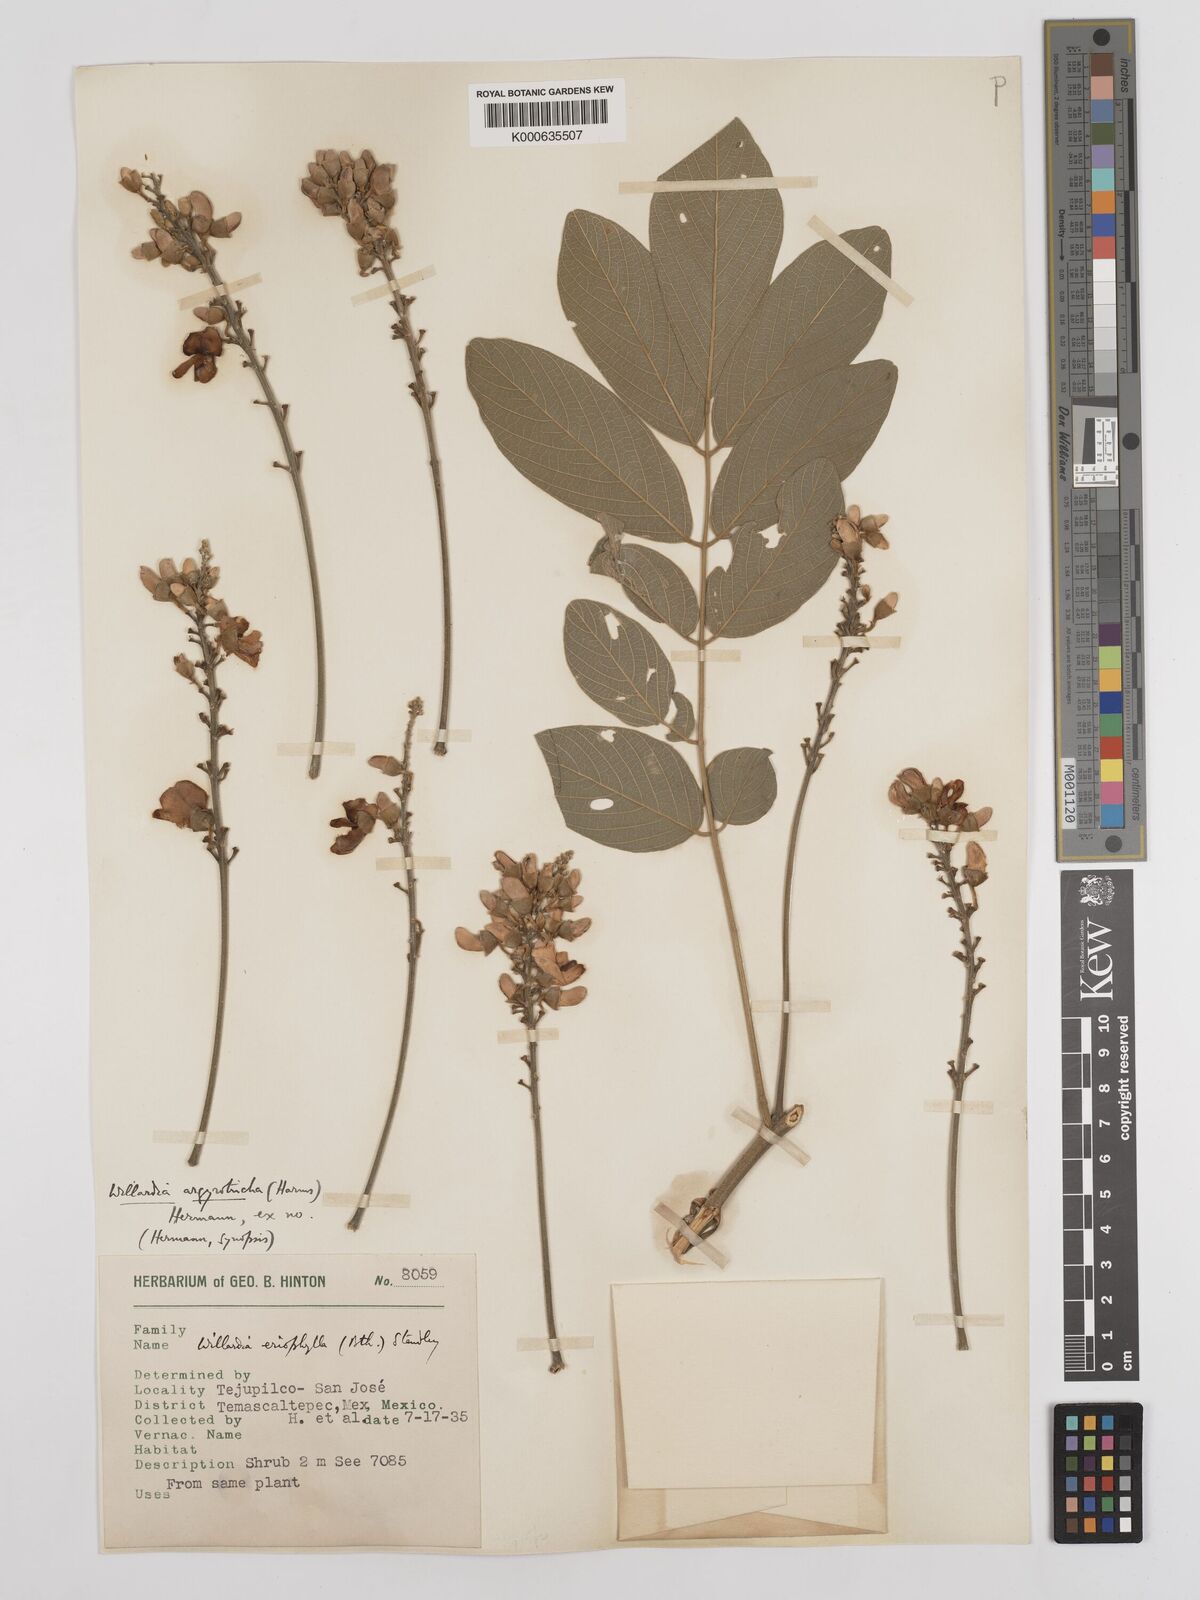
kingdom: Plantae
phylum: Tracheophyta
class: Magnoliopsida
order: Fabales
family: Fabaceae
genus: Lonchocarpus
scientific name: Lonchocarpus argyrotrichus
